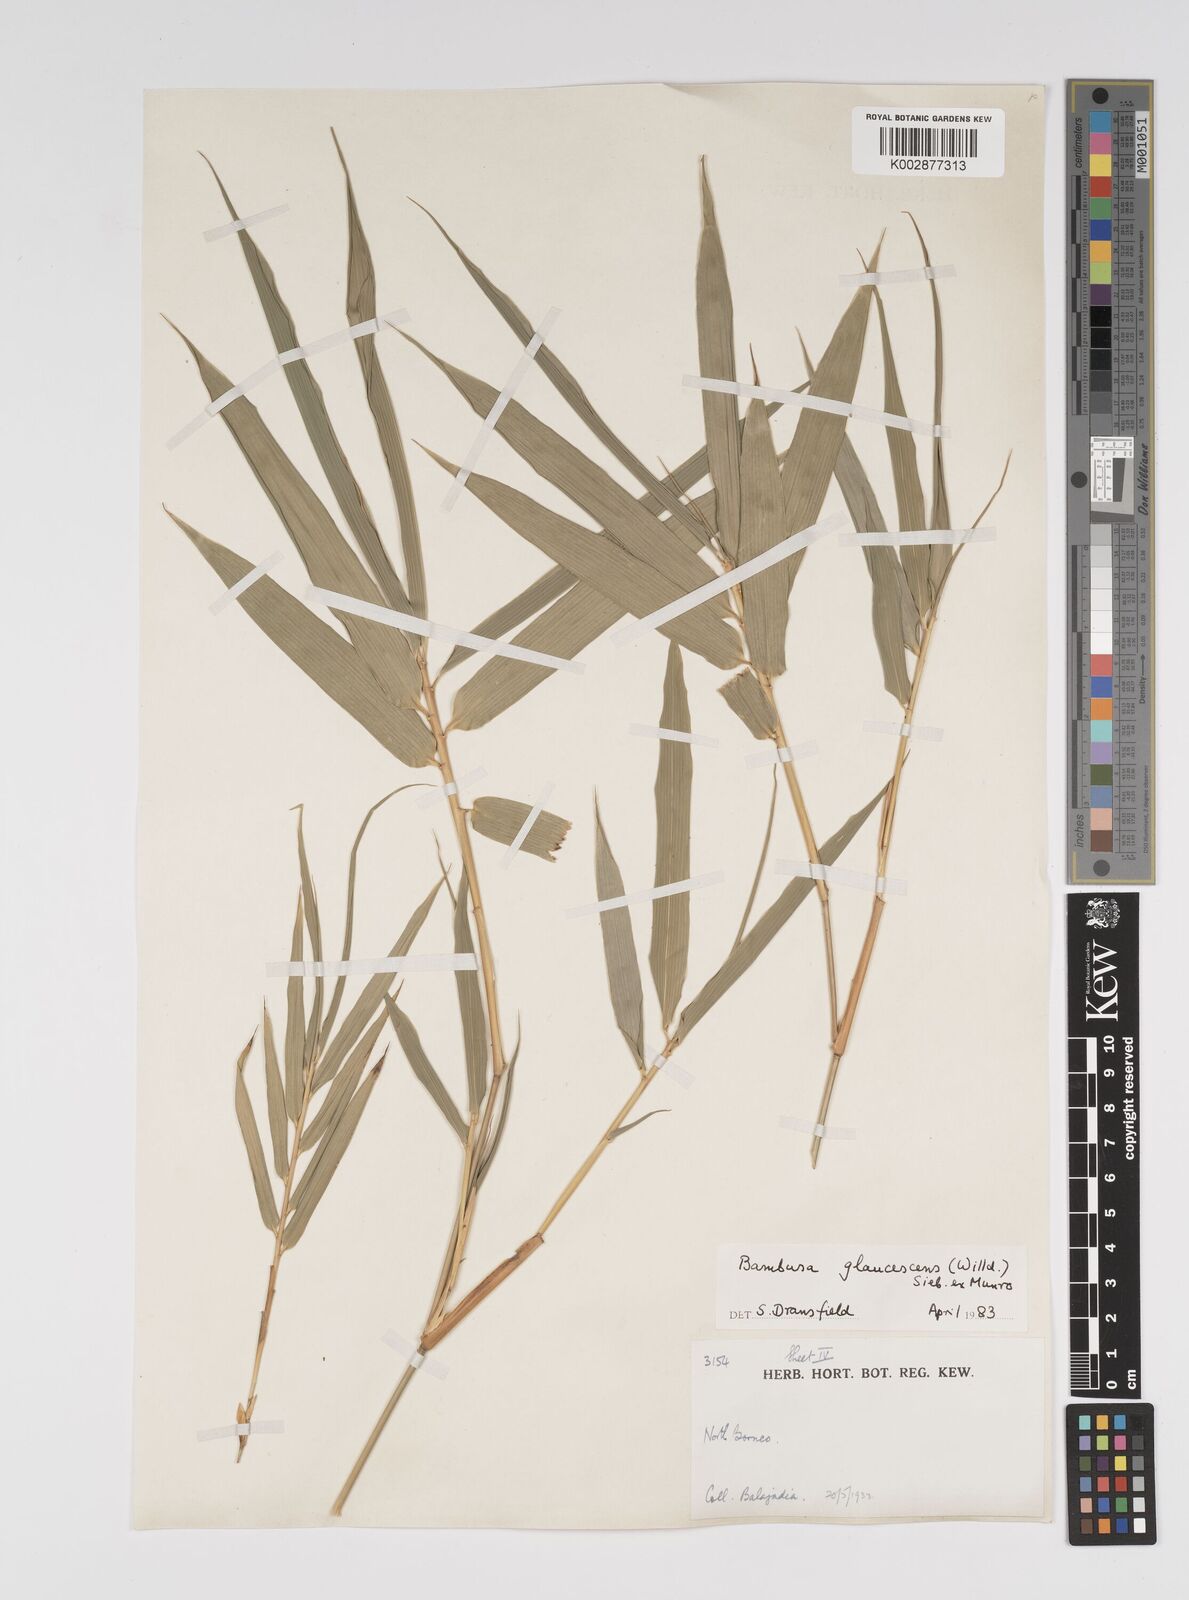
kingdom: Plantae
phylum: Tracheophyta
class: Liliopsida
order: Poales
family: Poaceae
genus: Bambusa
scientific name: Bambusa multiplex
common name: Hedge bamboo
